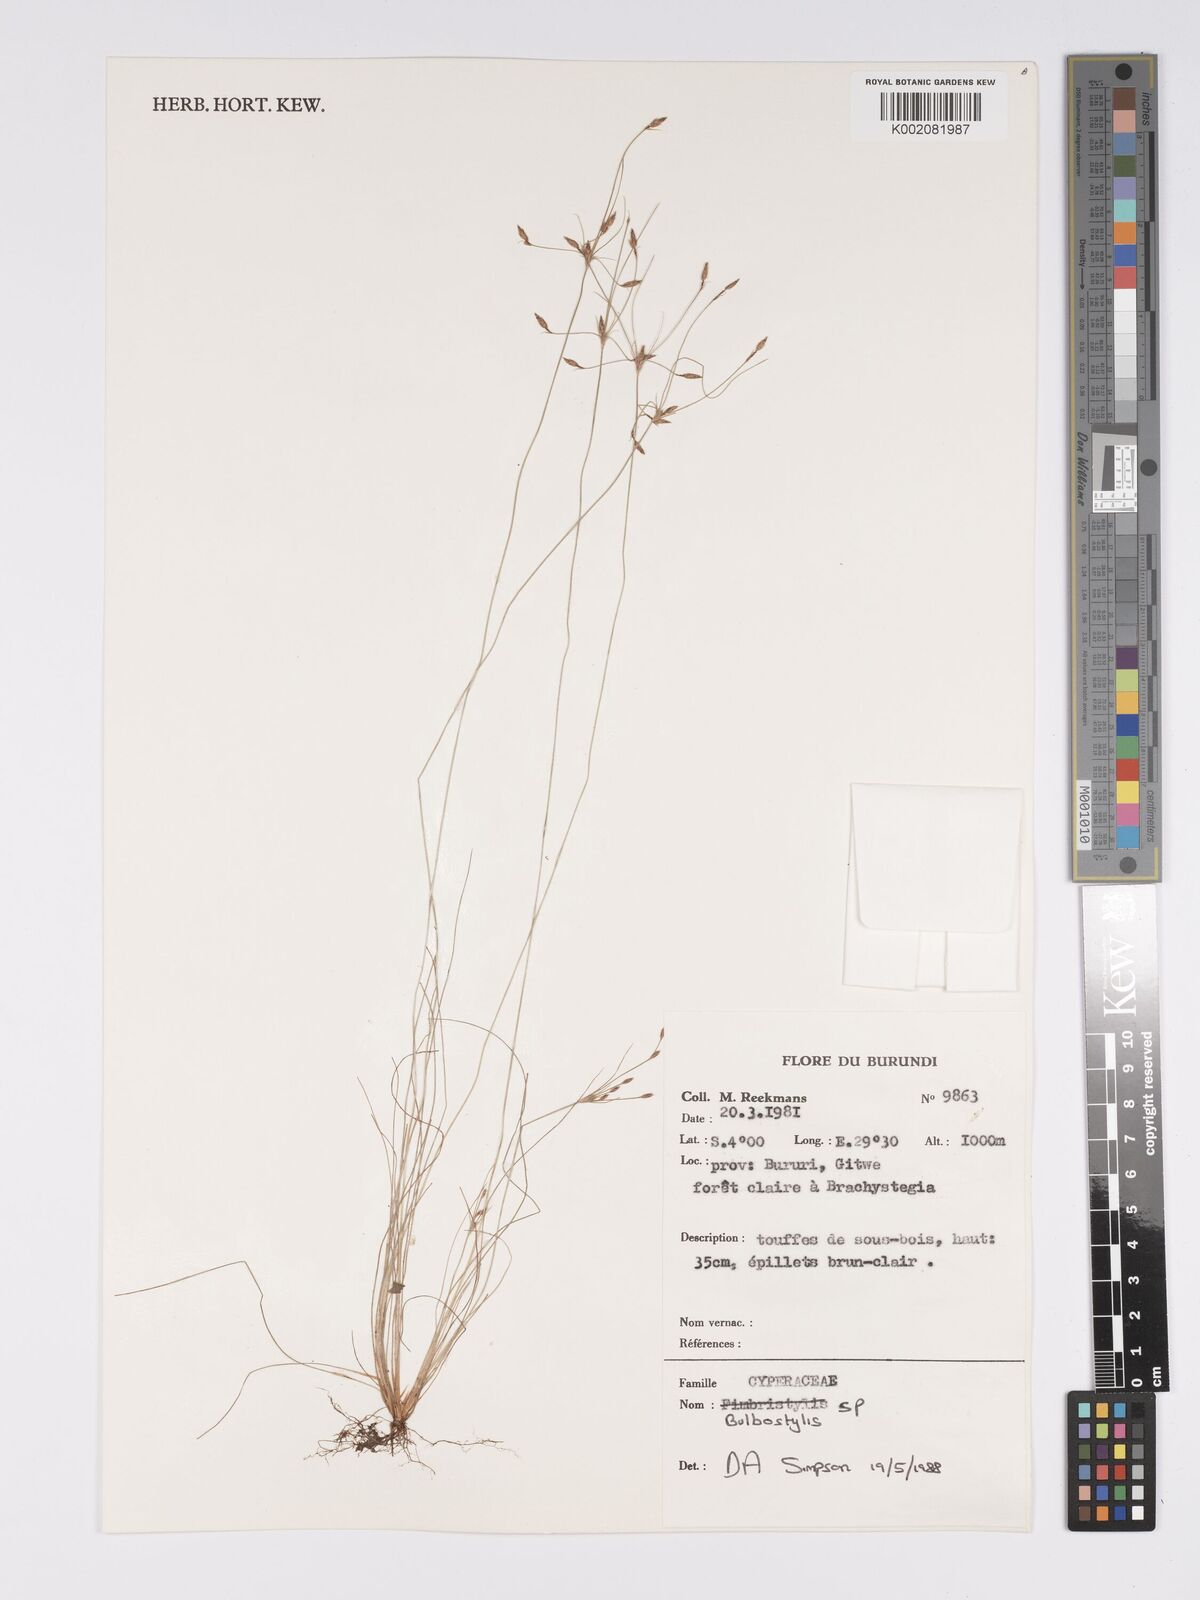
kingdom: Plantae
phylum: Tracheophyta
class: Magnoliopsida
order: Asterales
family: Asteraceae
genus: Bulbostylis
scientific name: Bulbostylis
